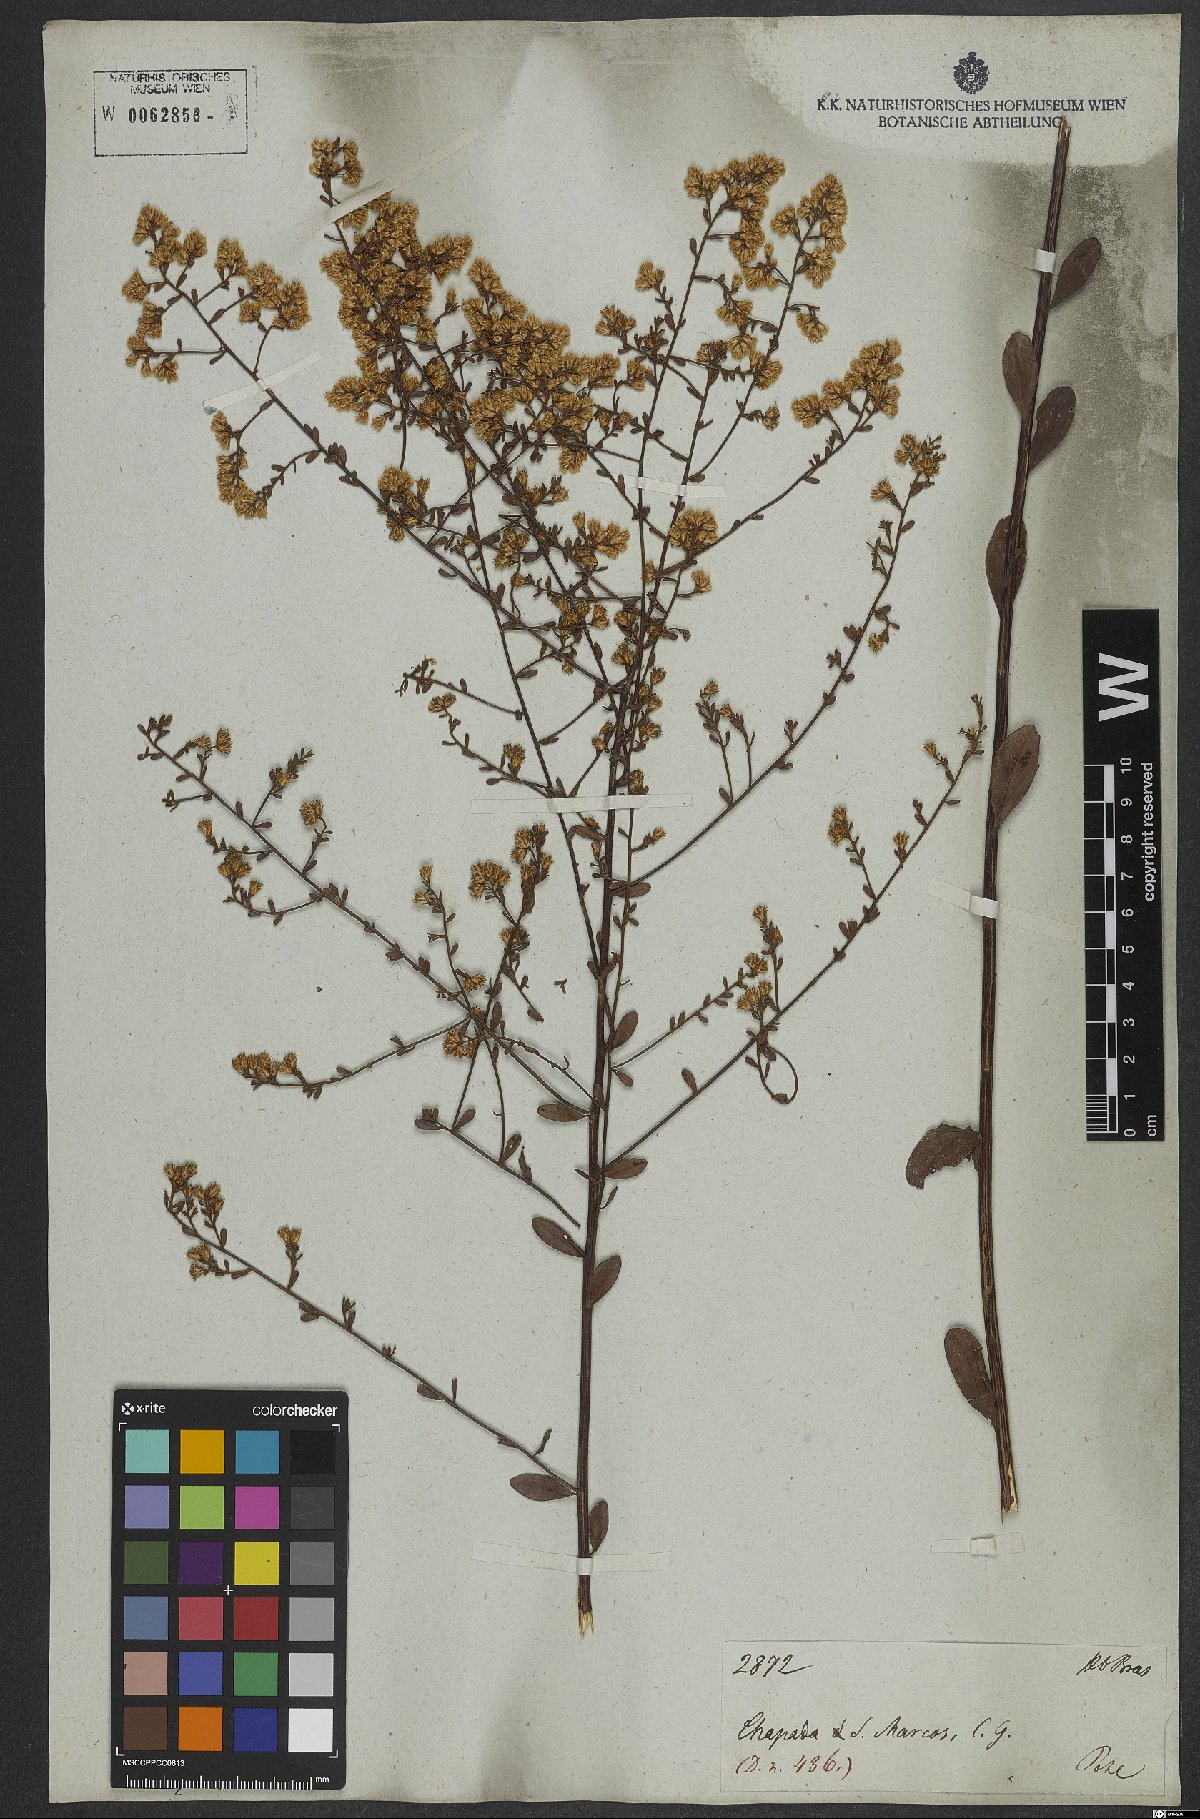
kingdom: Plantae
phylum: Tracheophyta
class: Magnoliopsida
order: Asterales
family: Asteraceae
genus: Baccharis
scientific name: Baccharis
